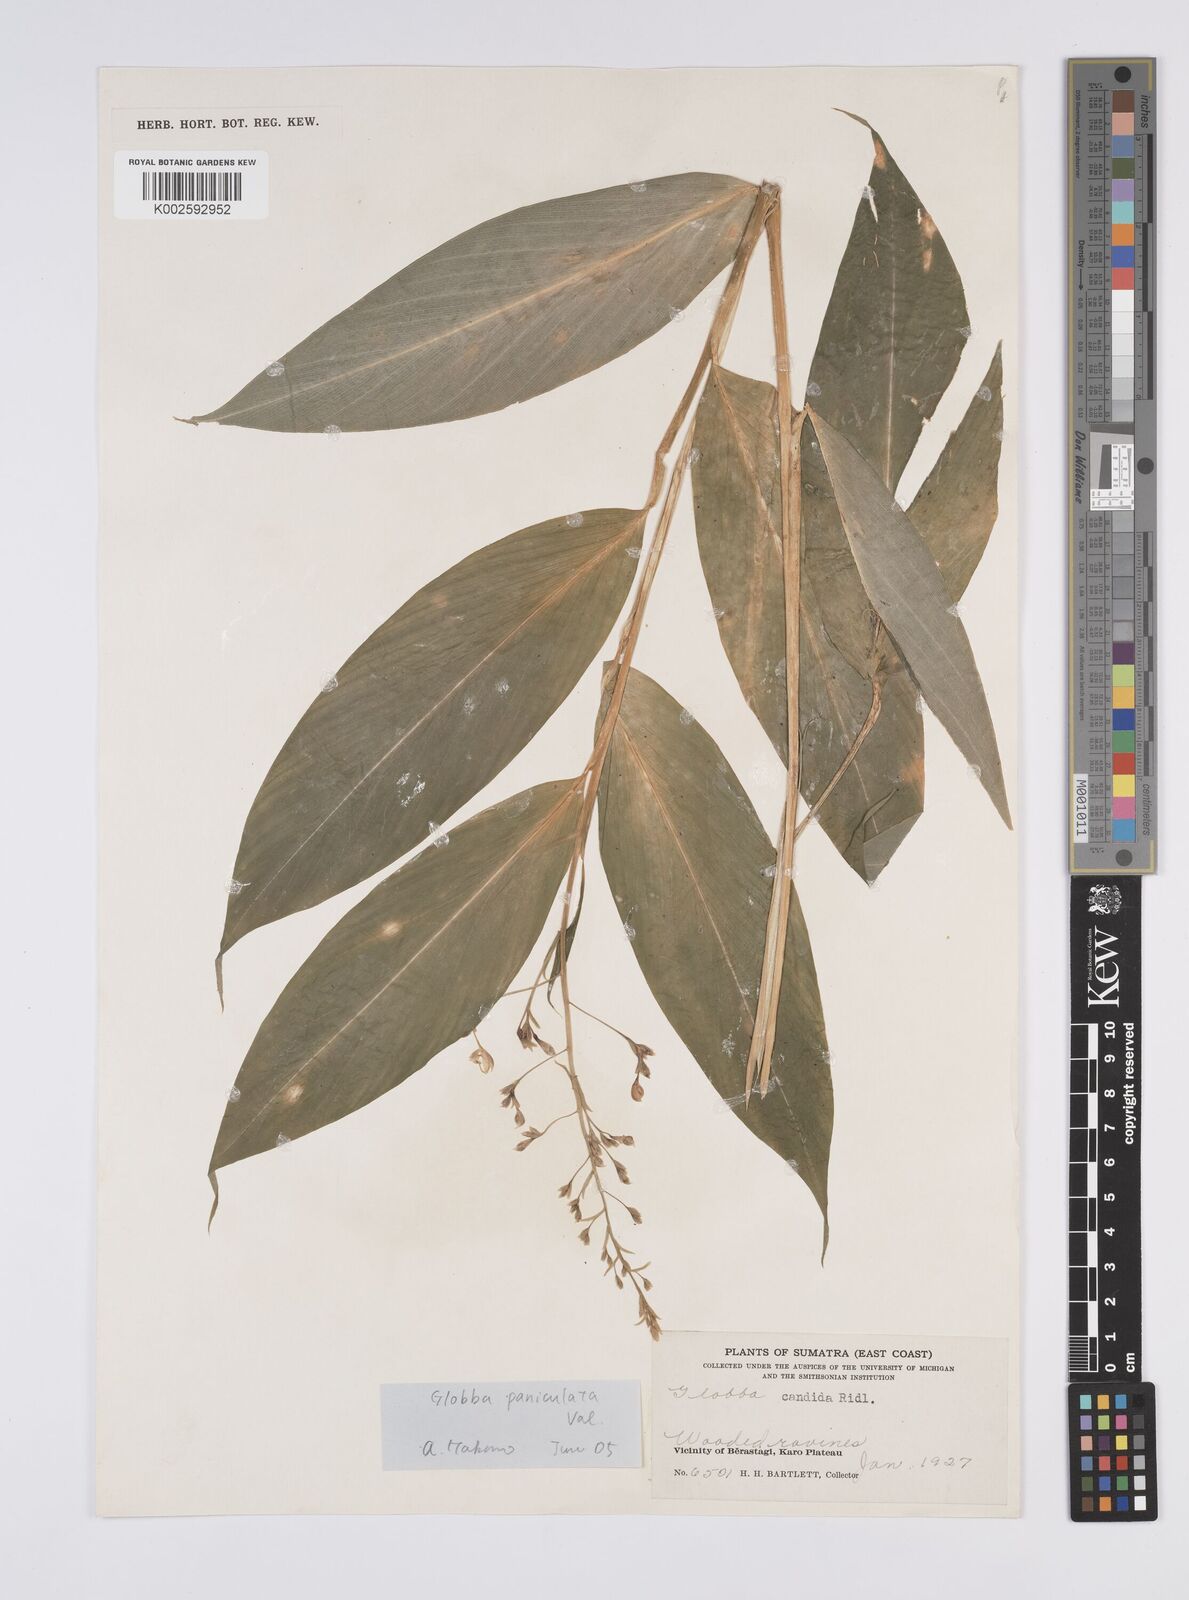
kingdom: Plantae
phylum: Tracheophyta
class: Liliopsida
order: Zingiberales
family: Zingiberaceae
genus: Globba
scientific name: Globba paniculata
